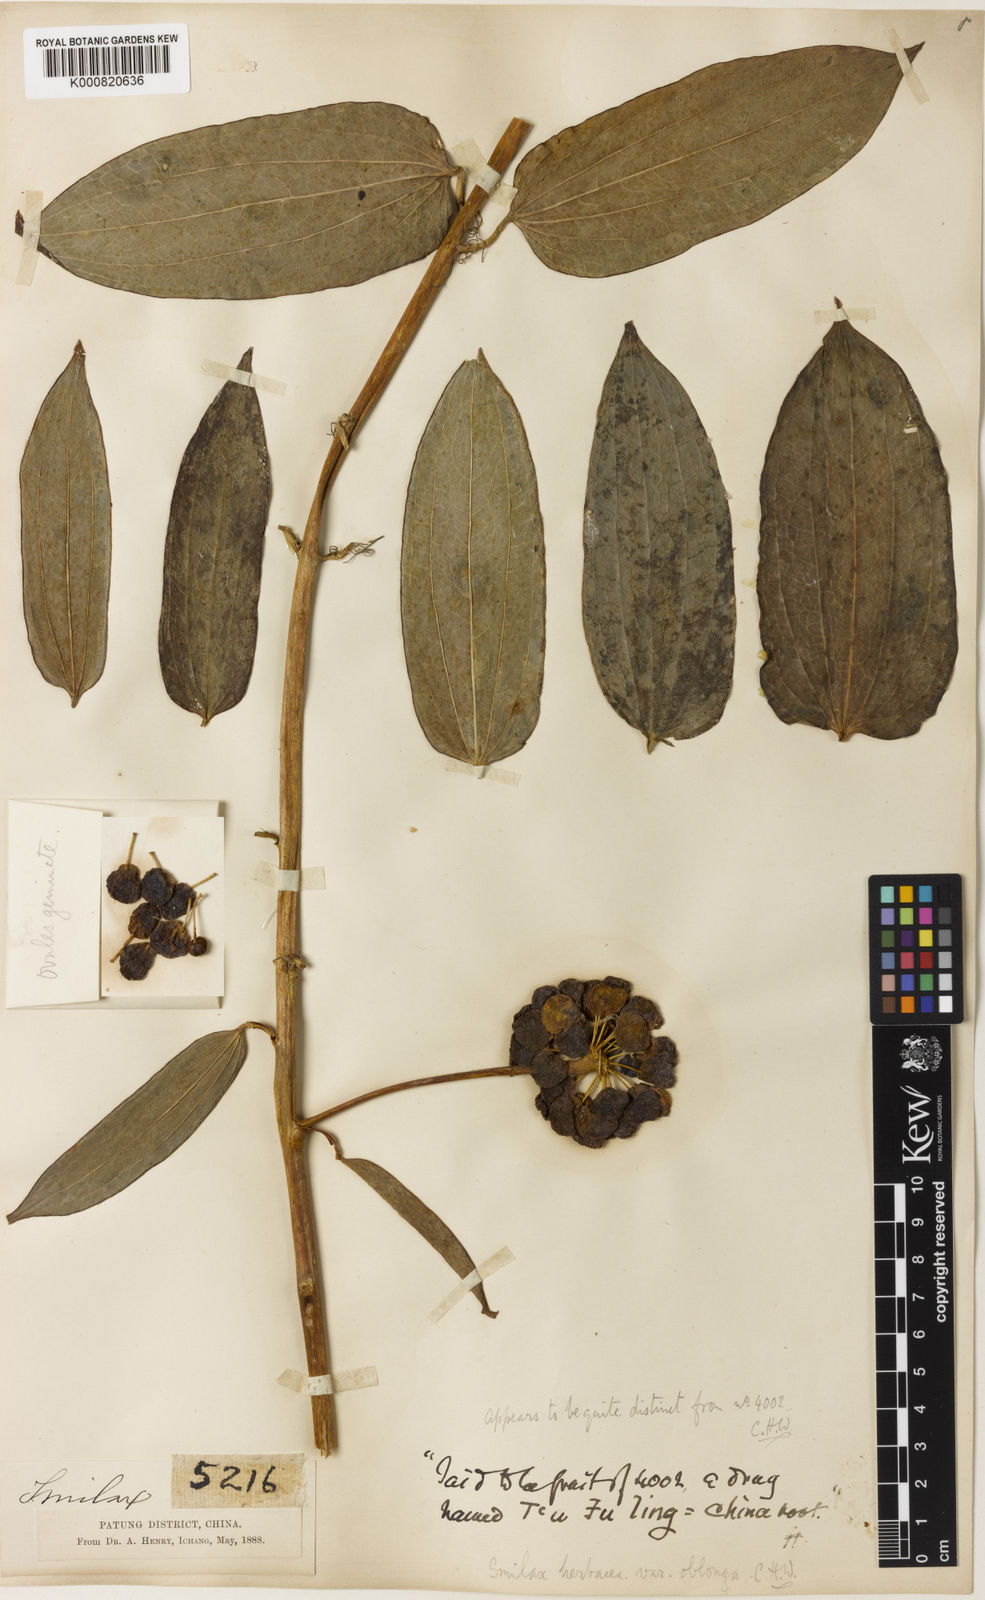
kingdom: Plantae
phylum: Tracheophyta
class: Liliopsida
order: Liliales
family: Smilacaceae
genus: Smilax
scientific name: Smilax nipponica
